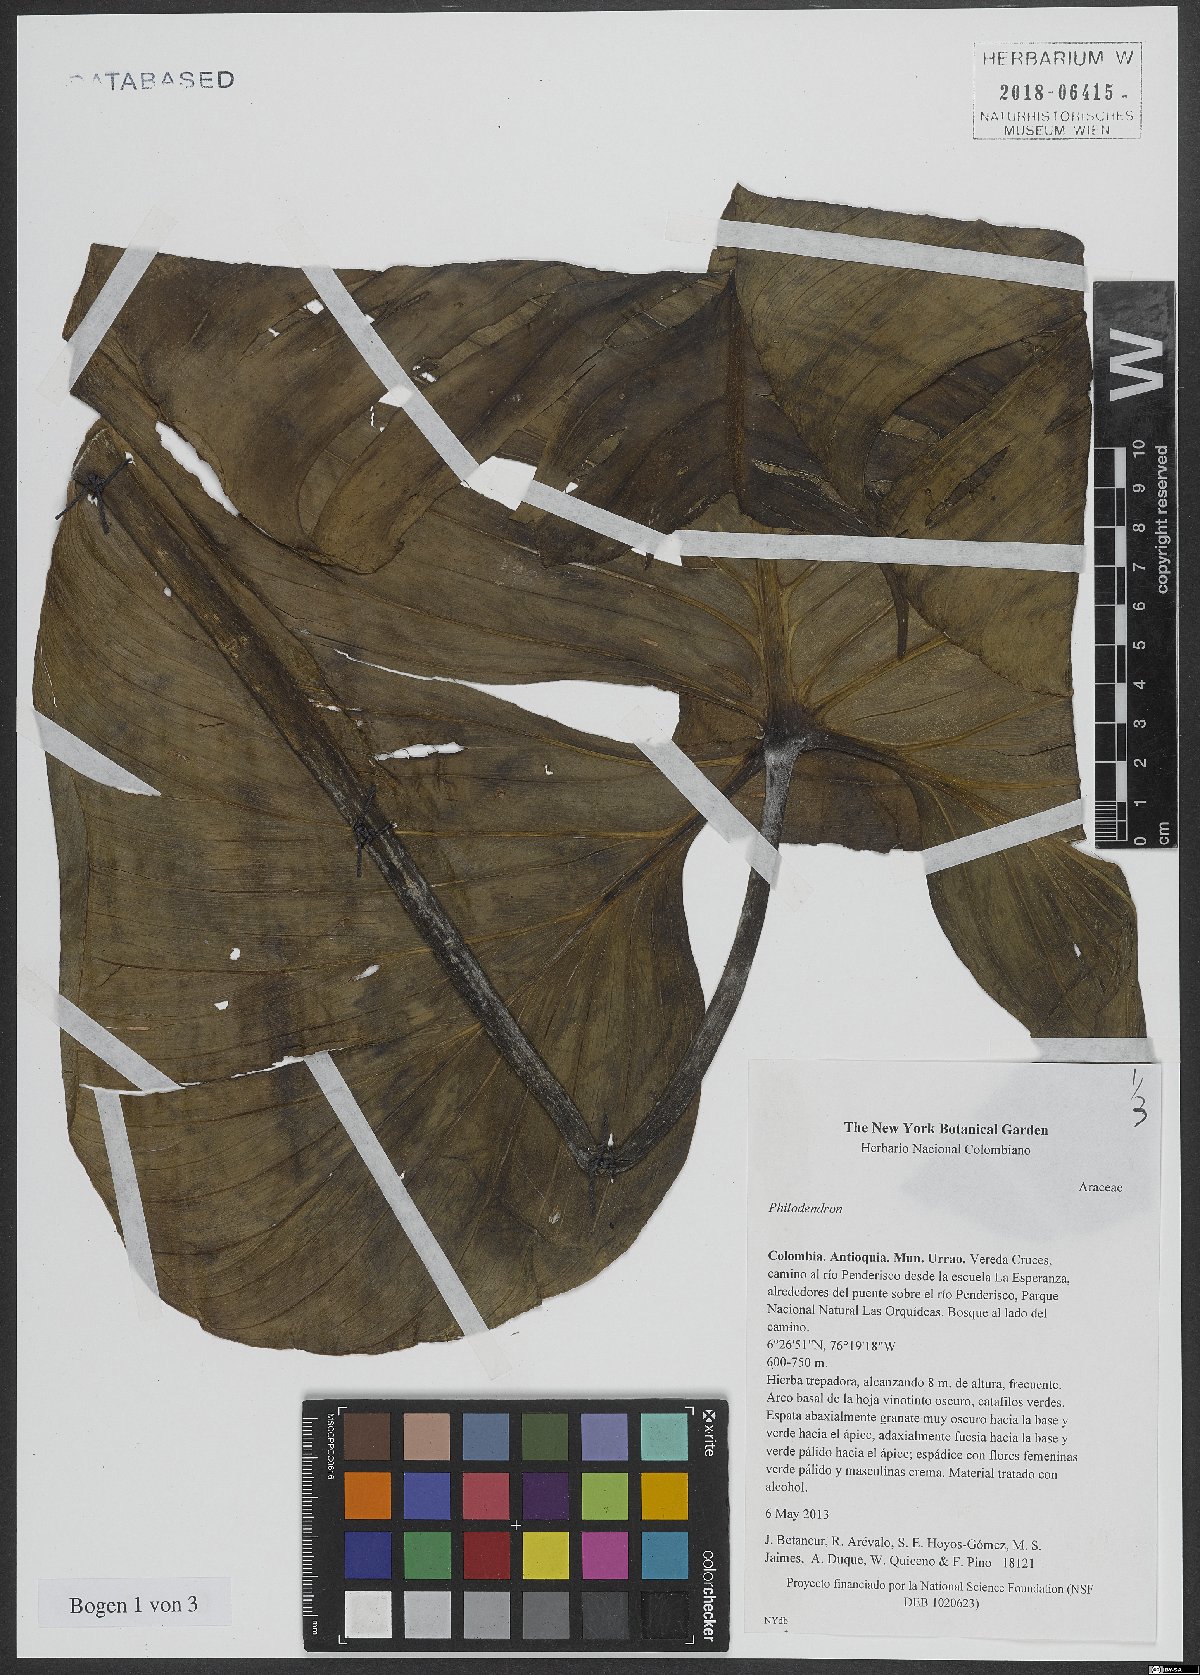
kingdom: Plantae
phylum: Tracheophyta
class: Liliopsida
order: Alismatales
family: Araceae
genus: Philodendron
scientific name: Philodendron
